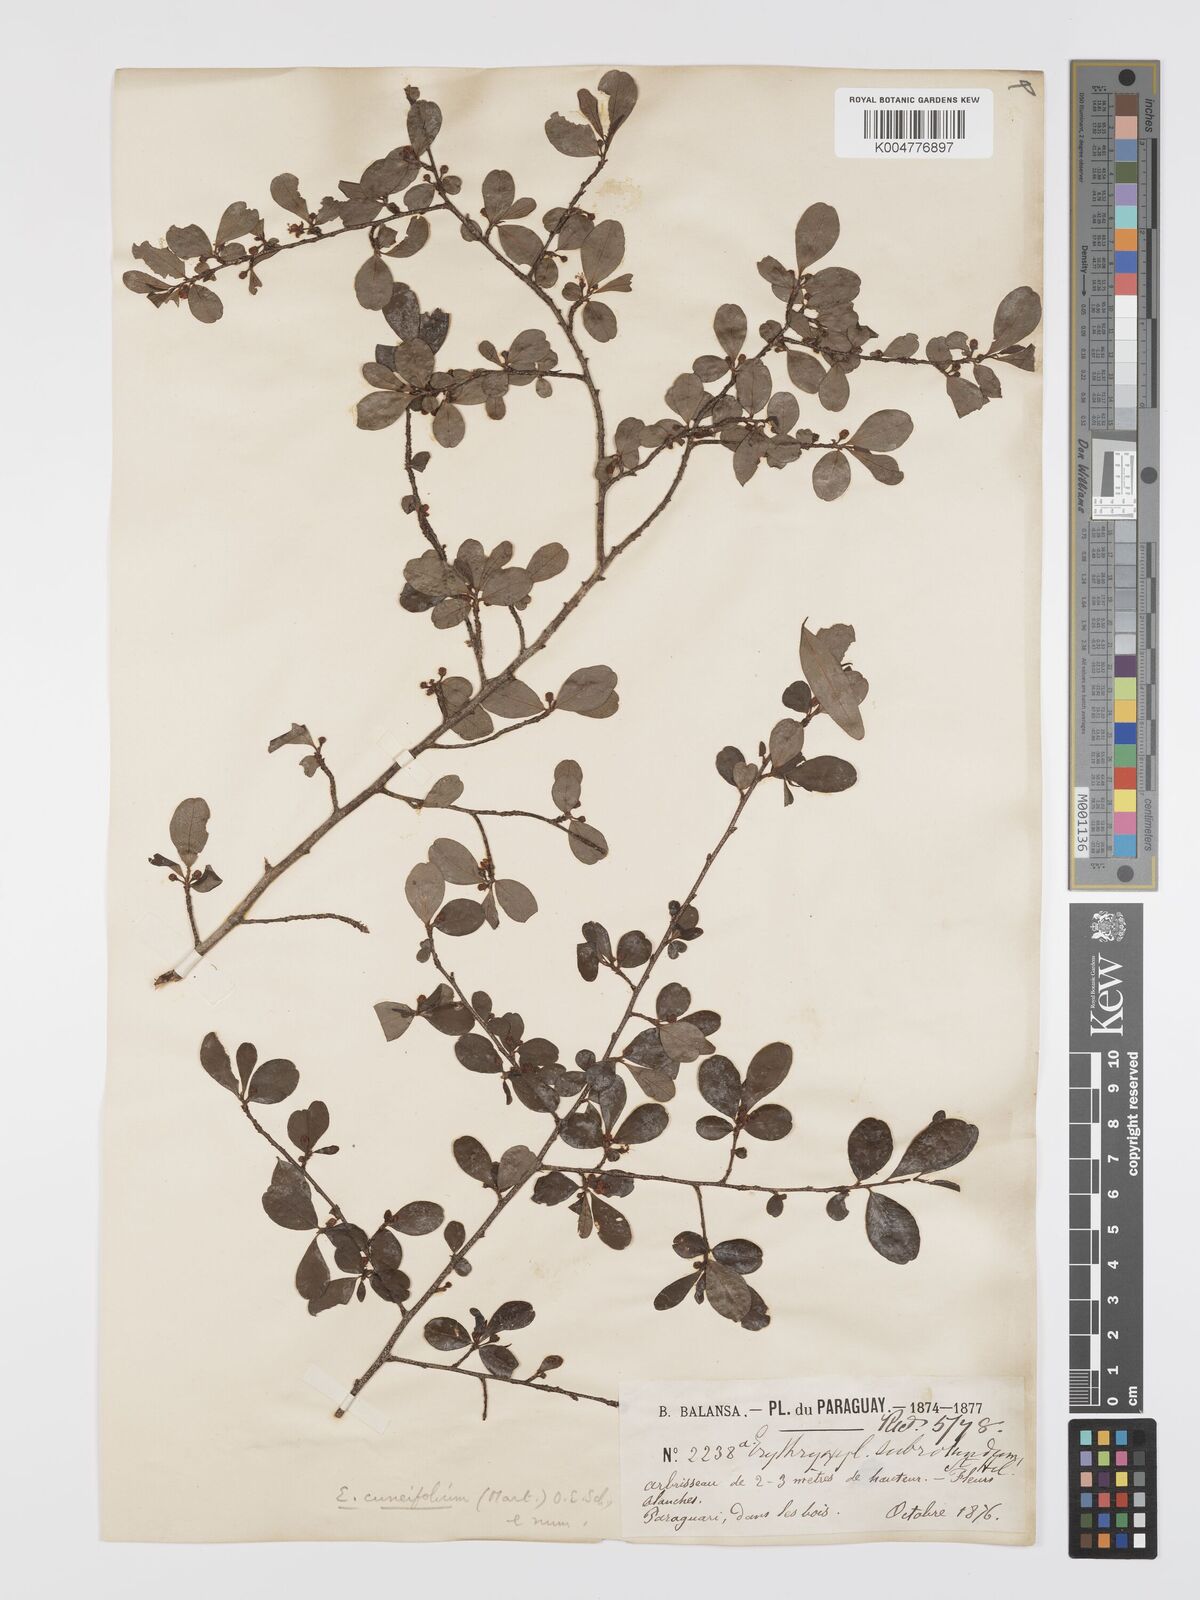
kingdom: Plantae
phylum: Tracheophyta
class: Magnoliopsida
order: Malpighiales
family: Erythroxylaceae
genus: Erythroxylum
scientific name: Erythroxylum cuneifolium
